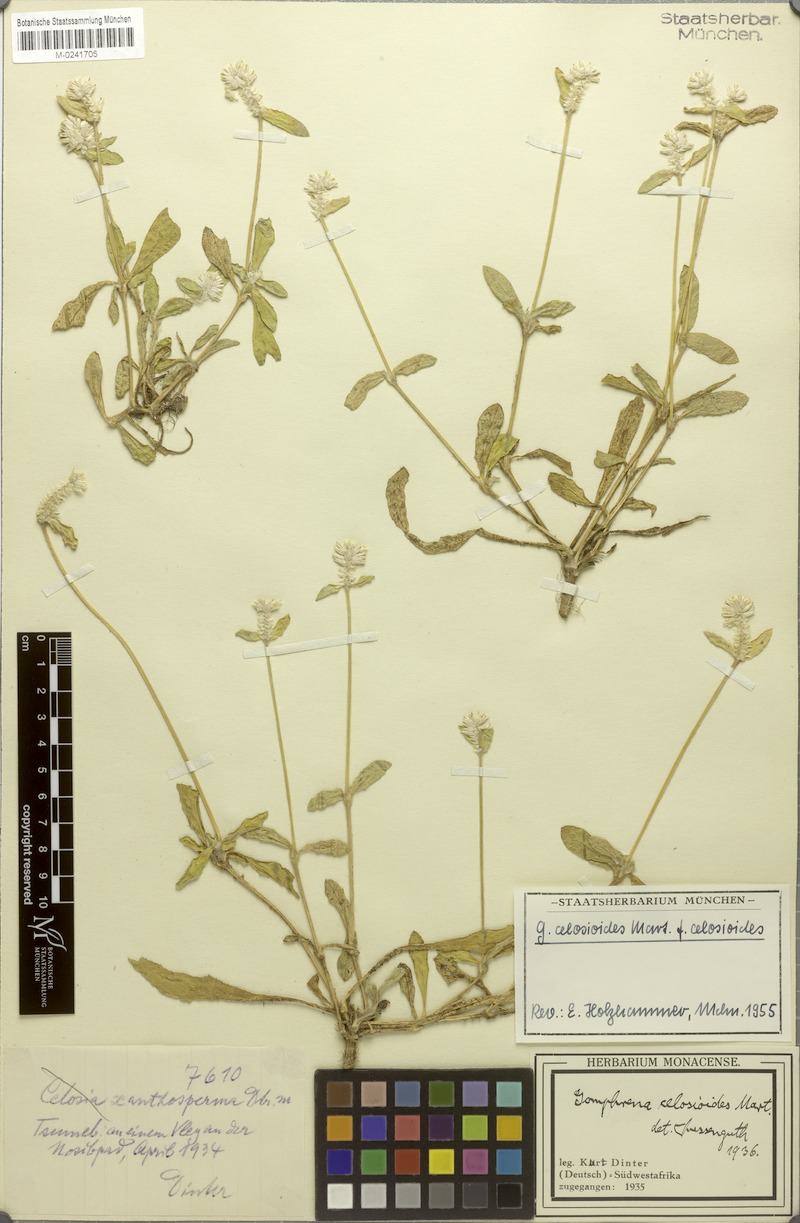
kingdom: Plantae
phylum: Tracheophyta
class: Magnoliopsida
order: Caryophyllales
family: Amaranthaceae
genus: Gomphrena
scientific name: Gomphrena celosioides
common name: Gomphrena-weed
